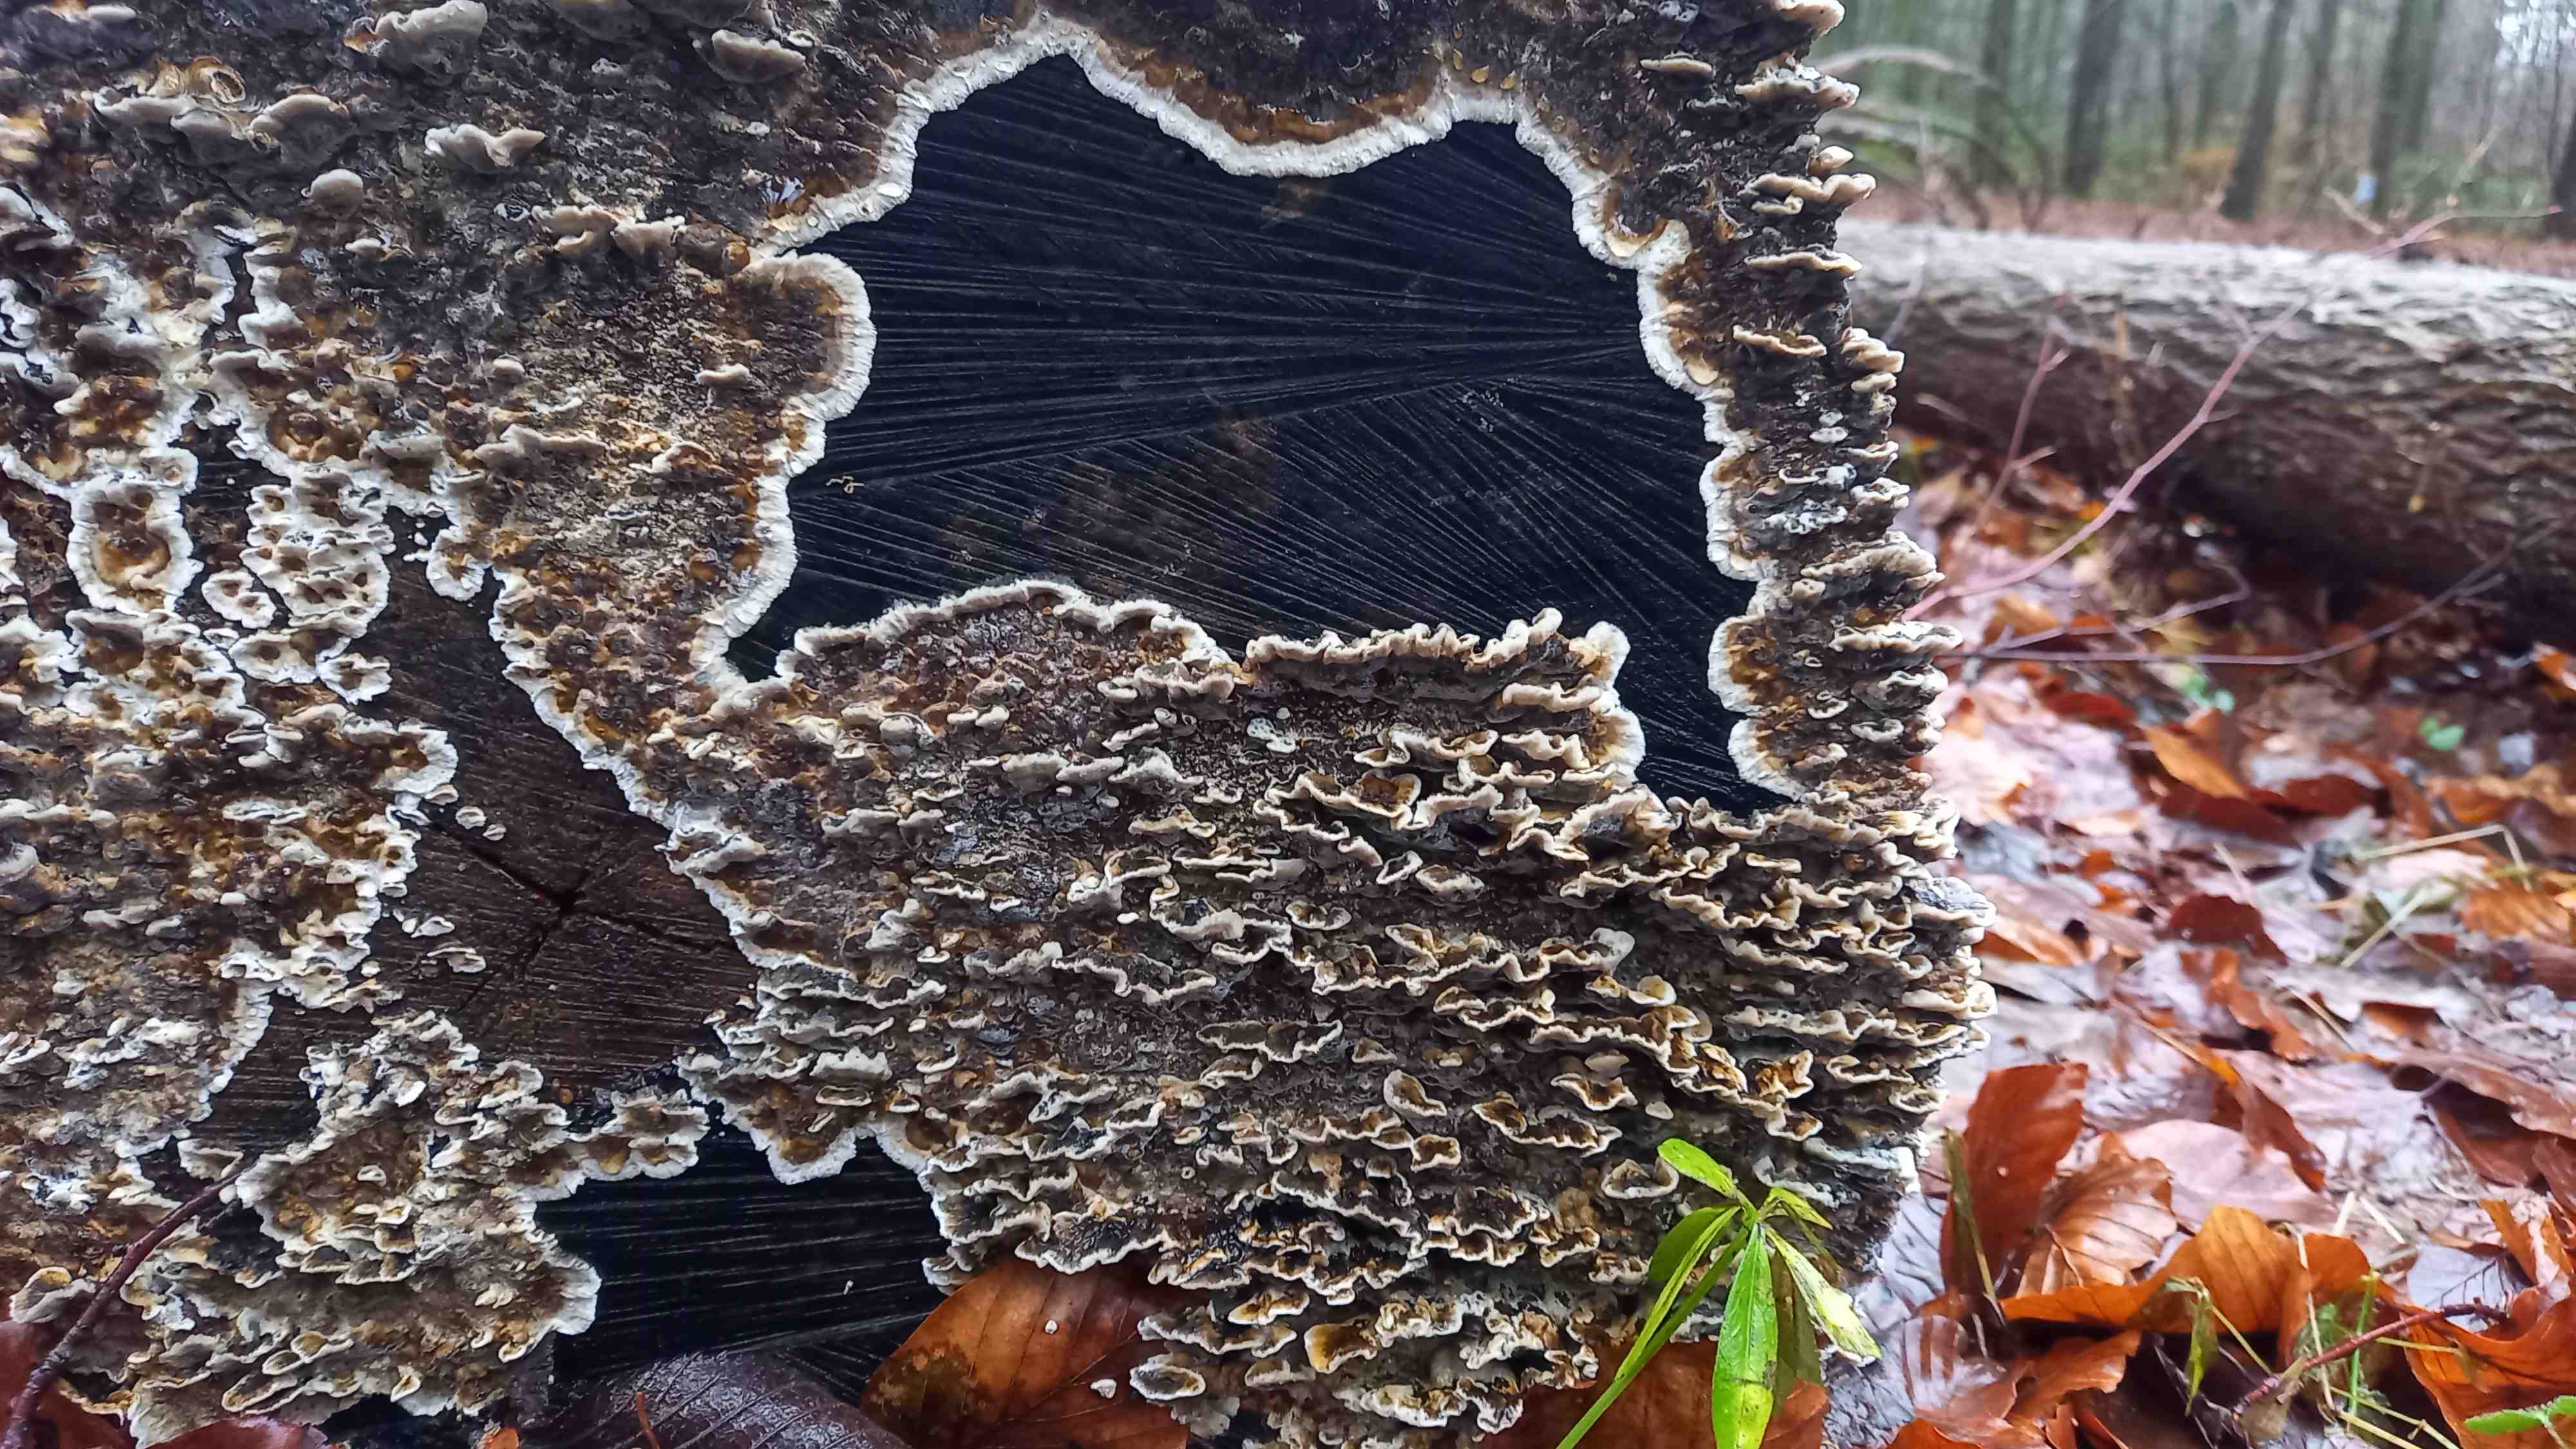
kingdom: Fungi
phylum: Basidiomycota
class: Agaricomycetes
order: Polyporales
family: Polyporaceae
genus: Trametes
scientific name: Trametes versicolor
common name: broget læderporesvamp
